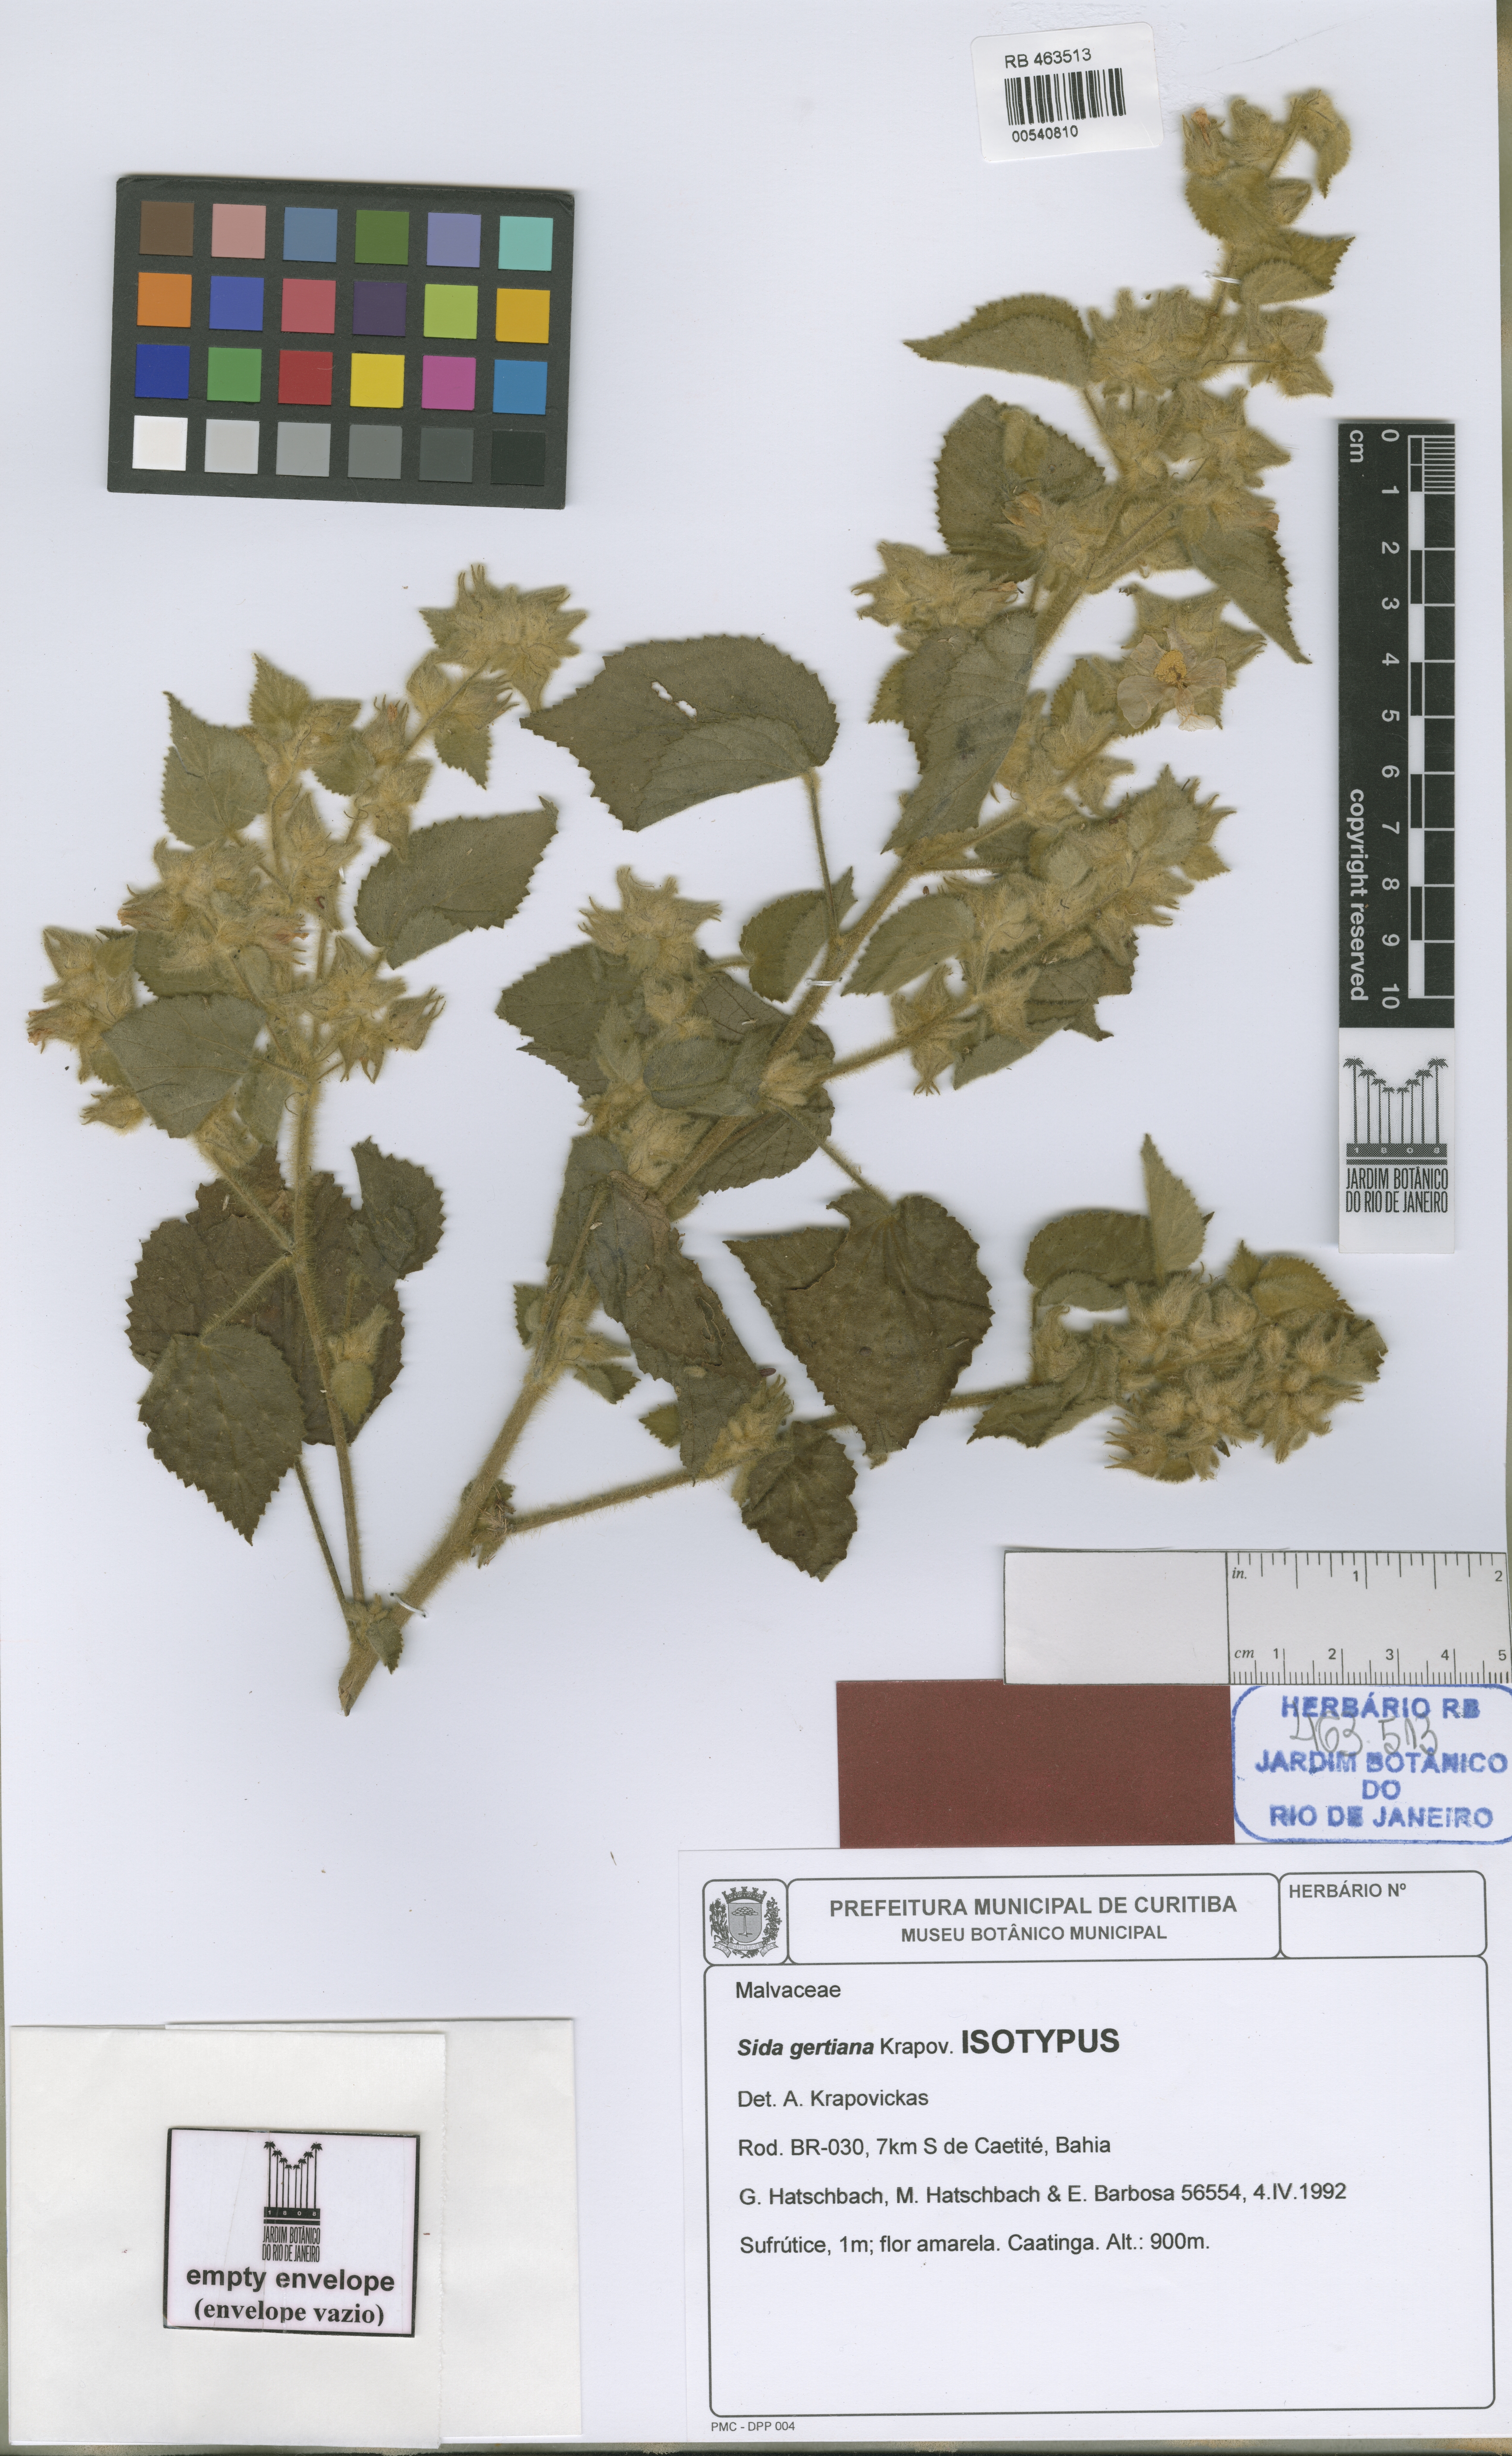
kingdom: Plantae
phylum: Tracheophyta
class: Magnoliopsida
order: Malvales
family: Malvaceae
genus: Sida
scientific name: Sida gertiana
